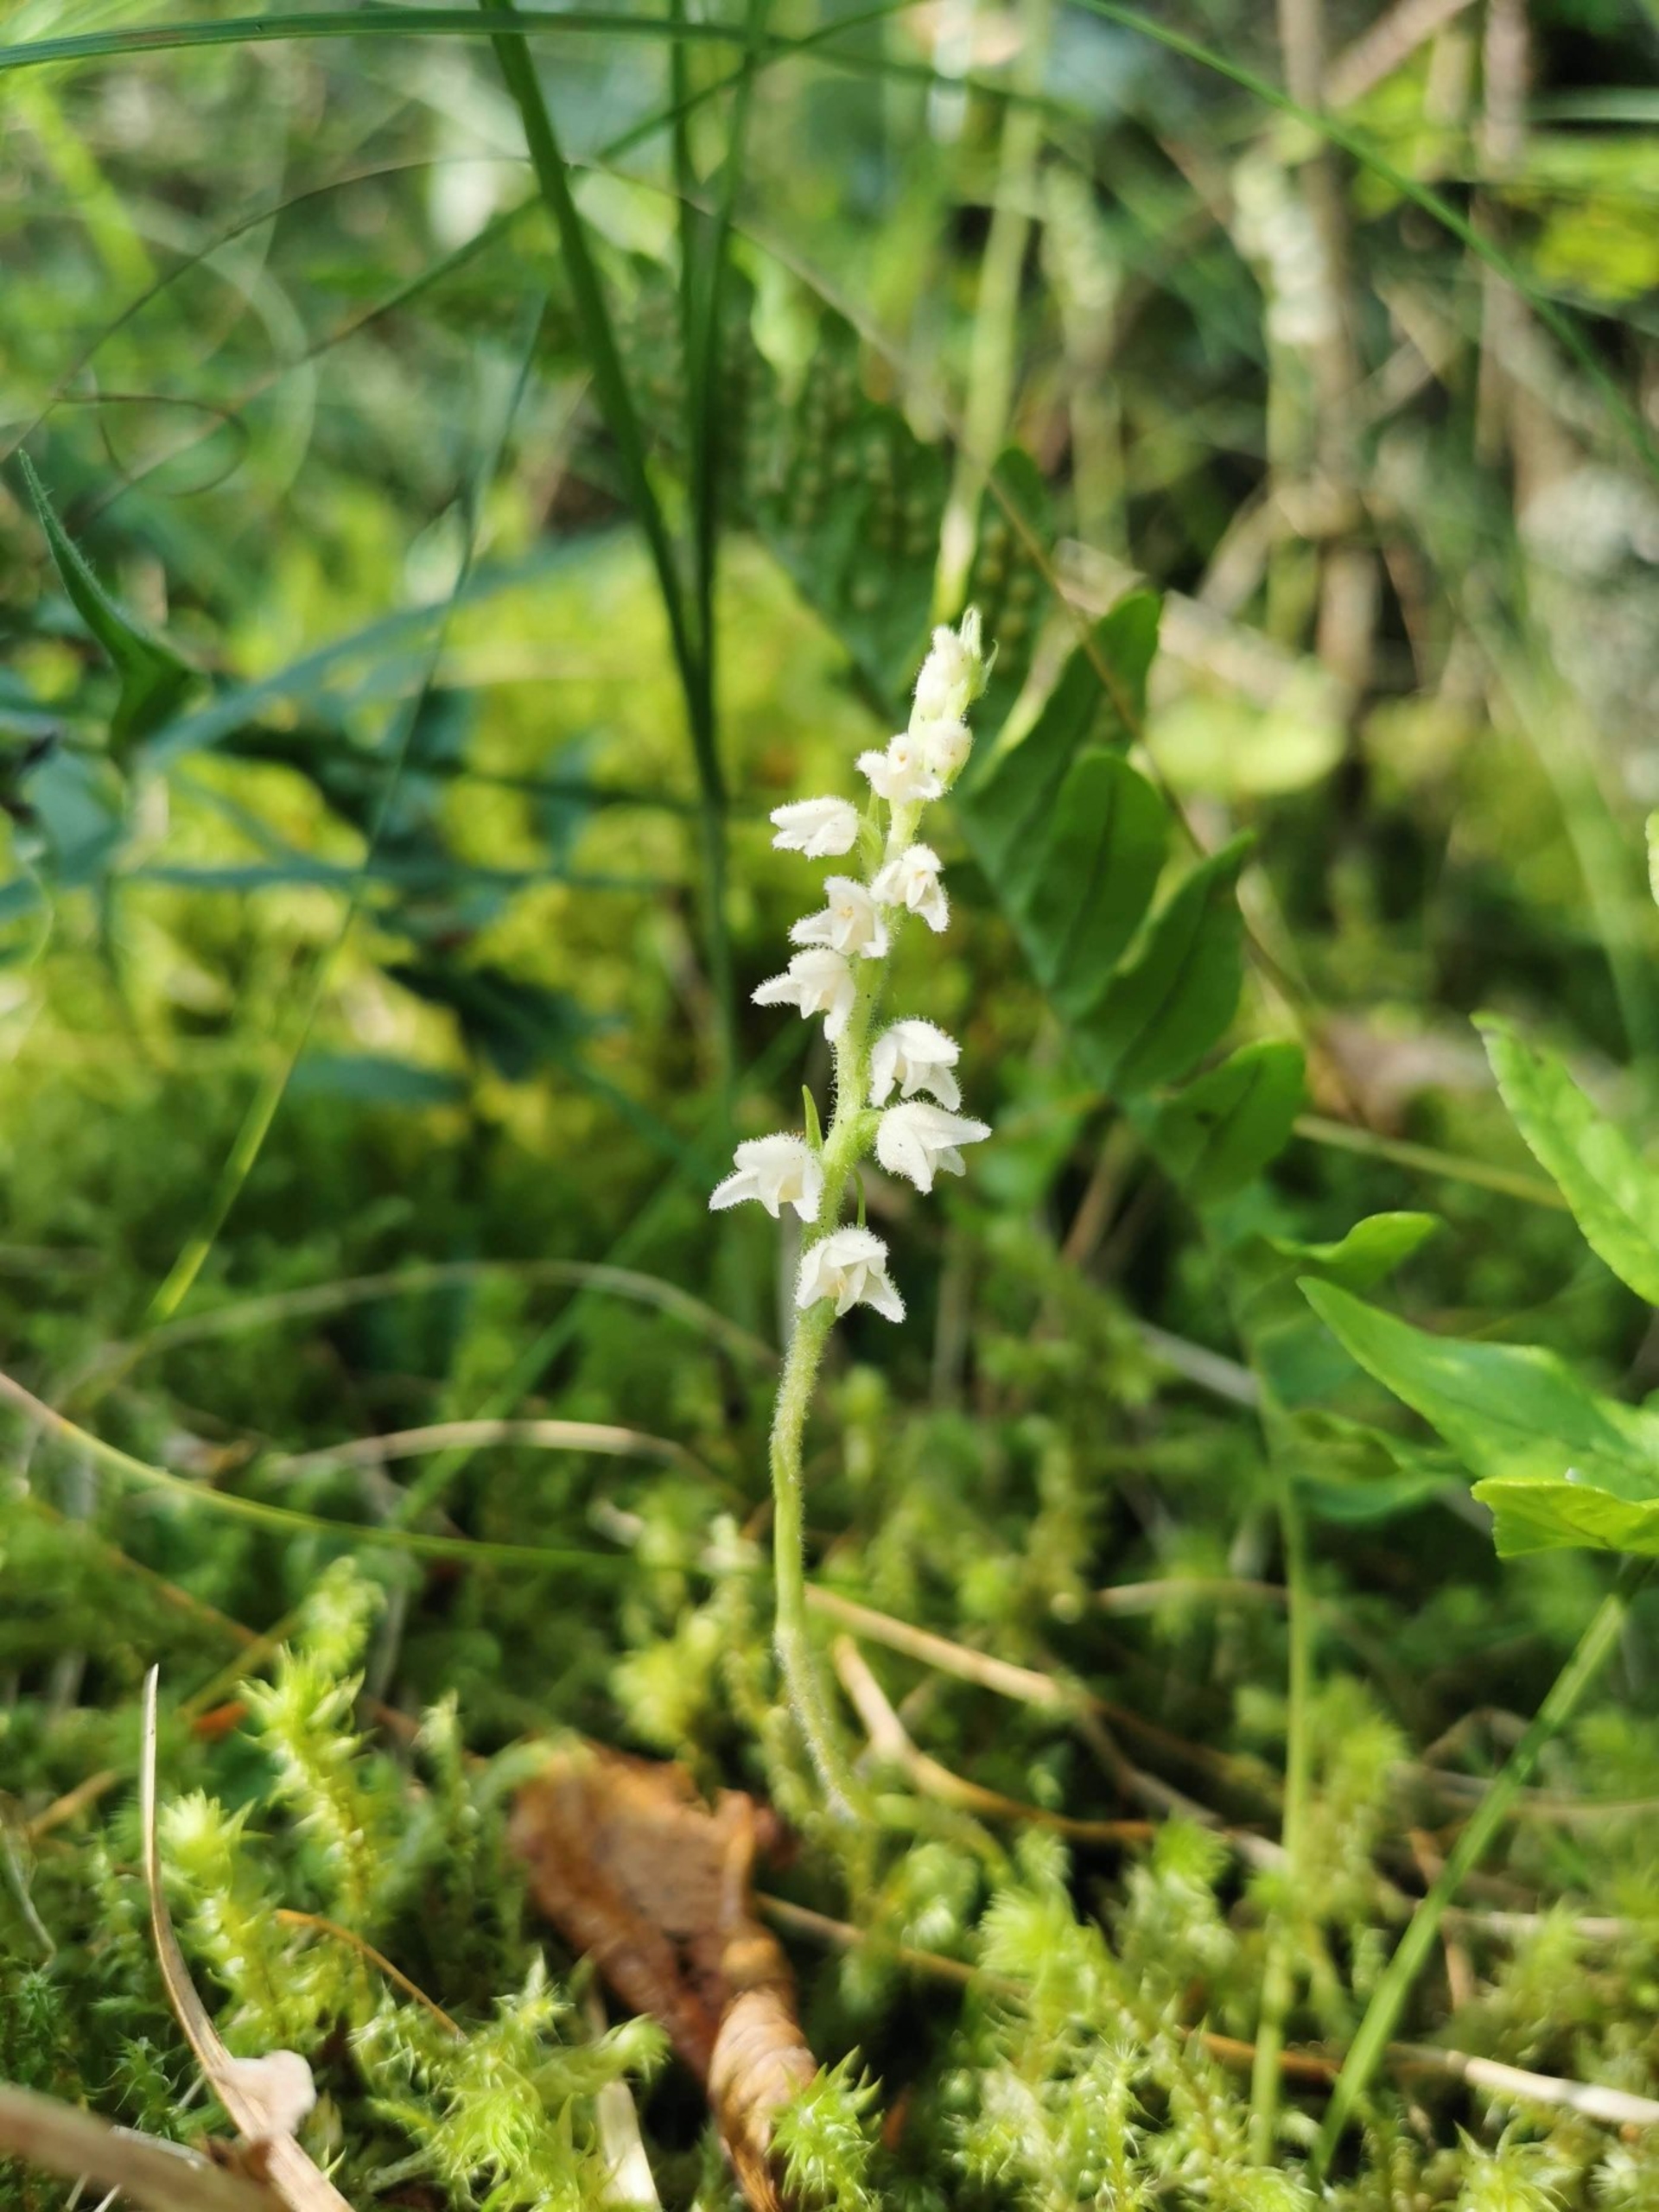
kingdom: Plantae
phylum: Tracheophyta
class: Liliopsida
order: Asparagales
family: Orchidaceae
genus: Goodyera
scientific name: Goodyera repens
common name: Knærod
